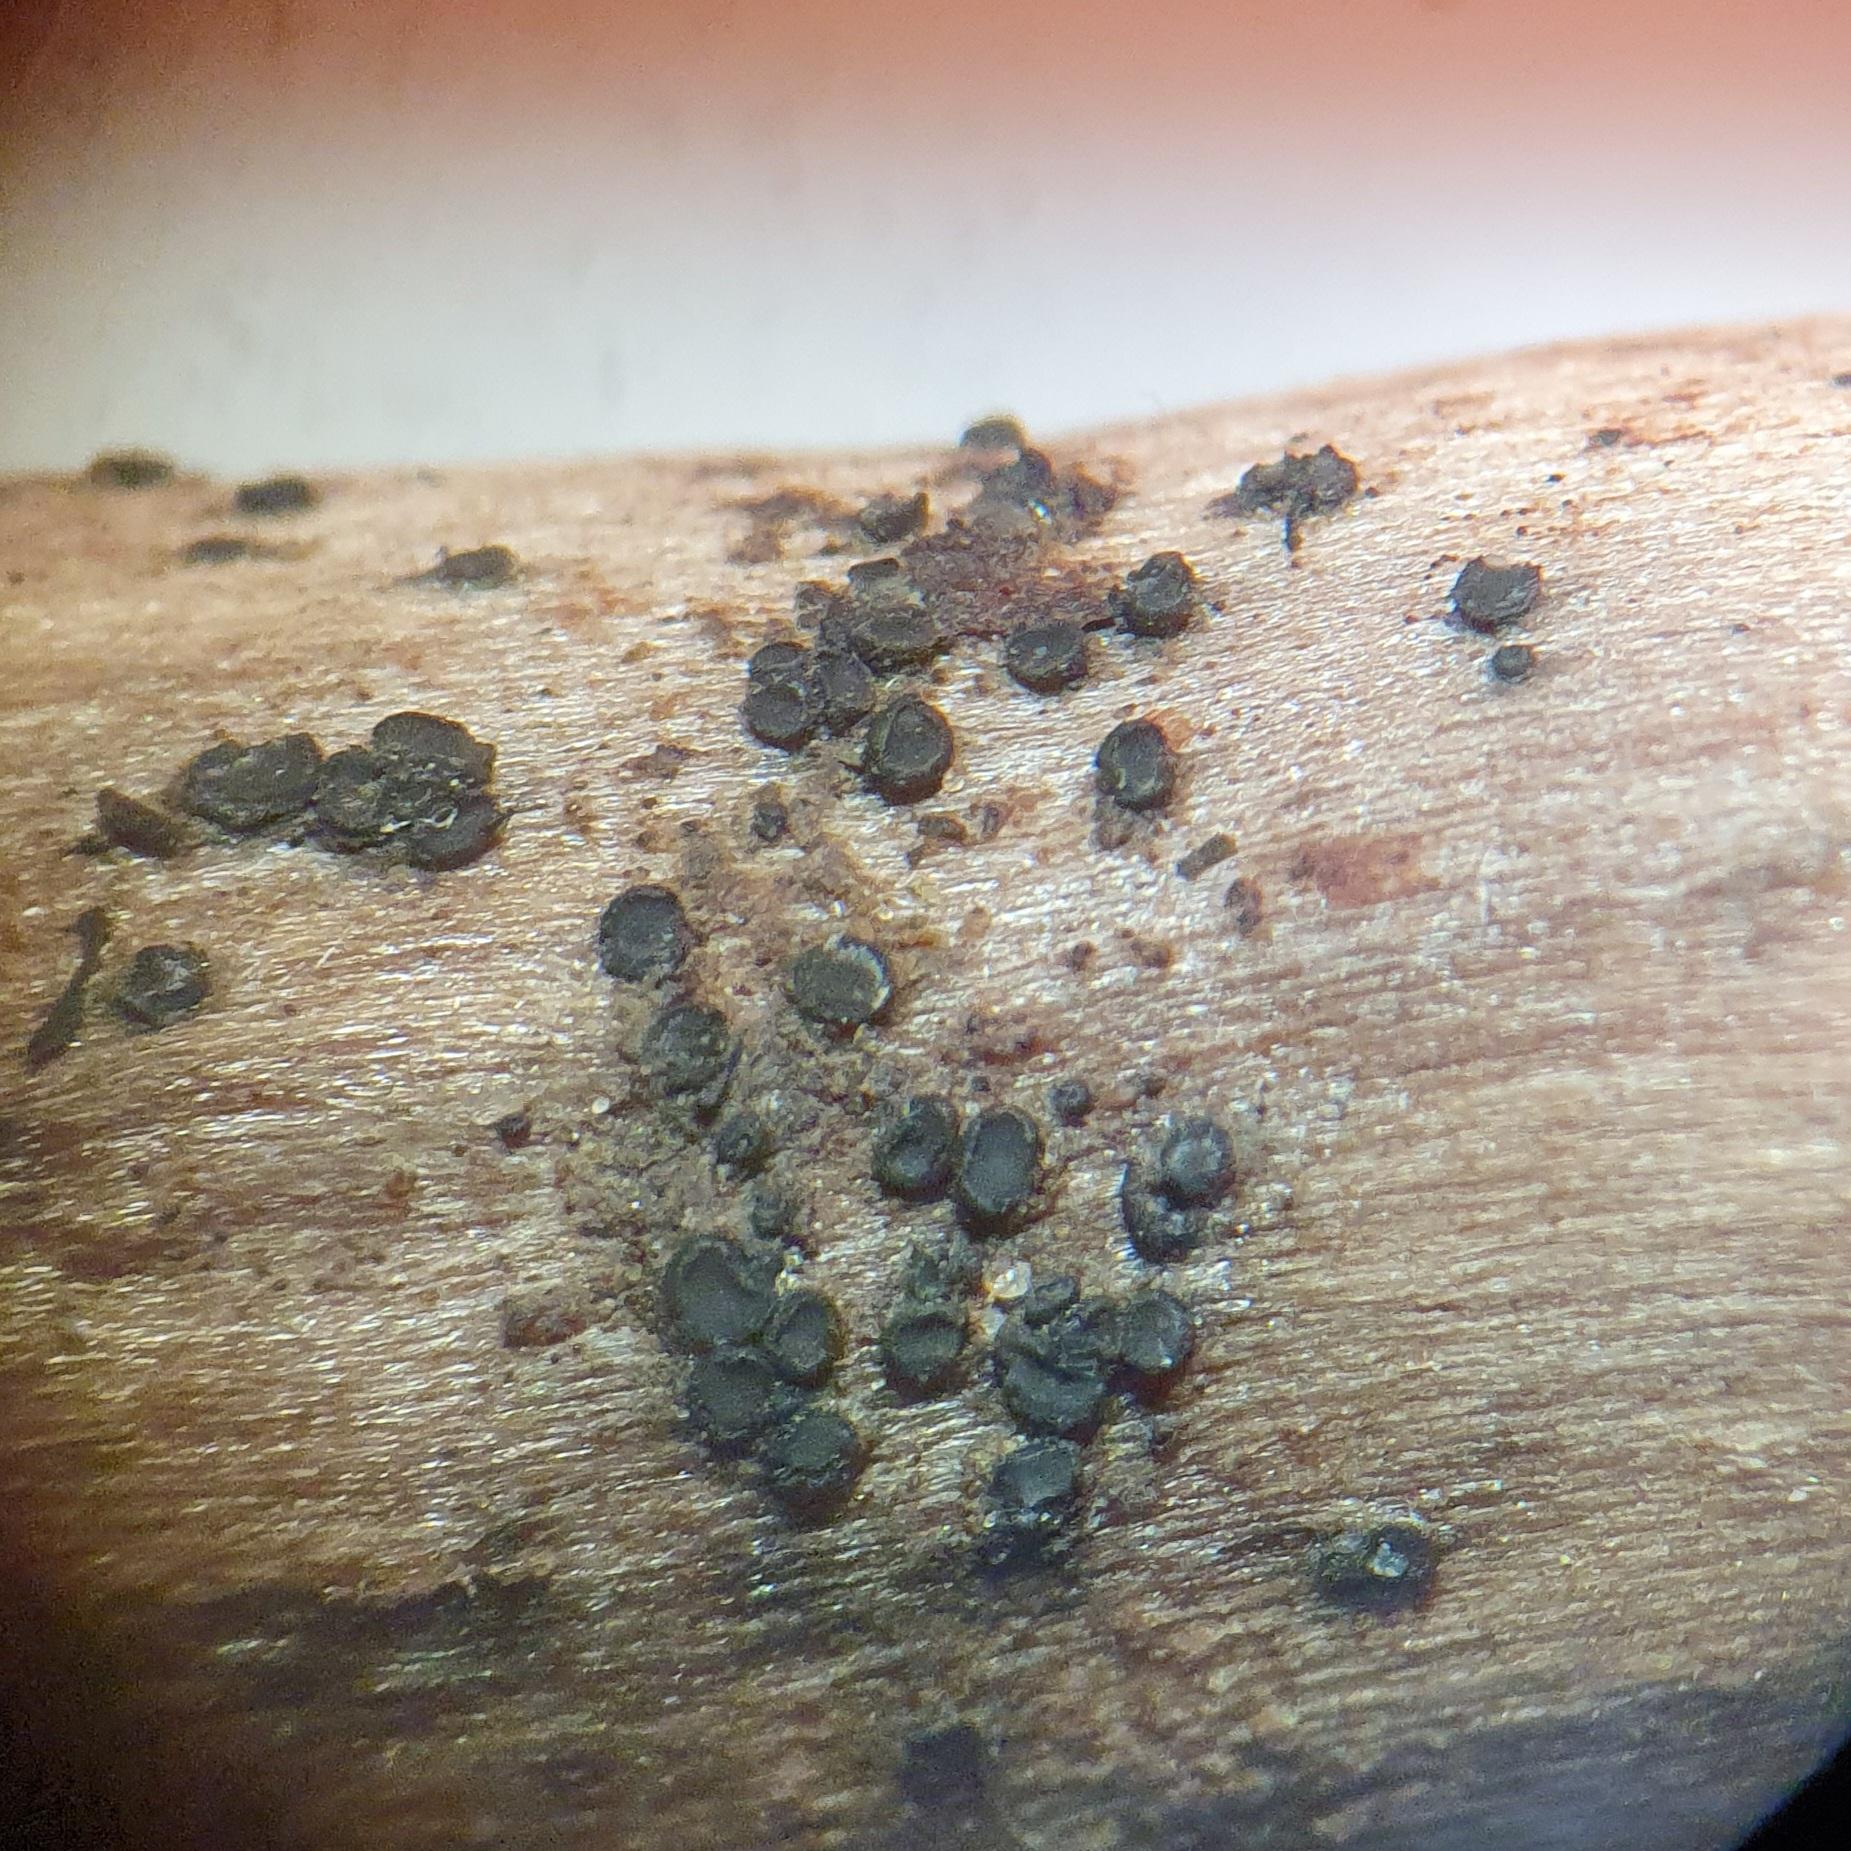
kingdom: Fungi
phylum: Ascomycota
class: Leotiomycetes
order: Helotiales
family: Mollisiaceae
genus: Mollisia
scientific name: Mollisia ligni
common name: ved-gråskive
